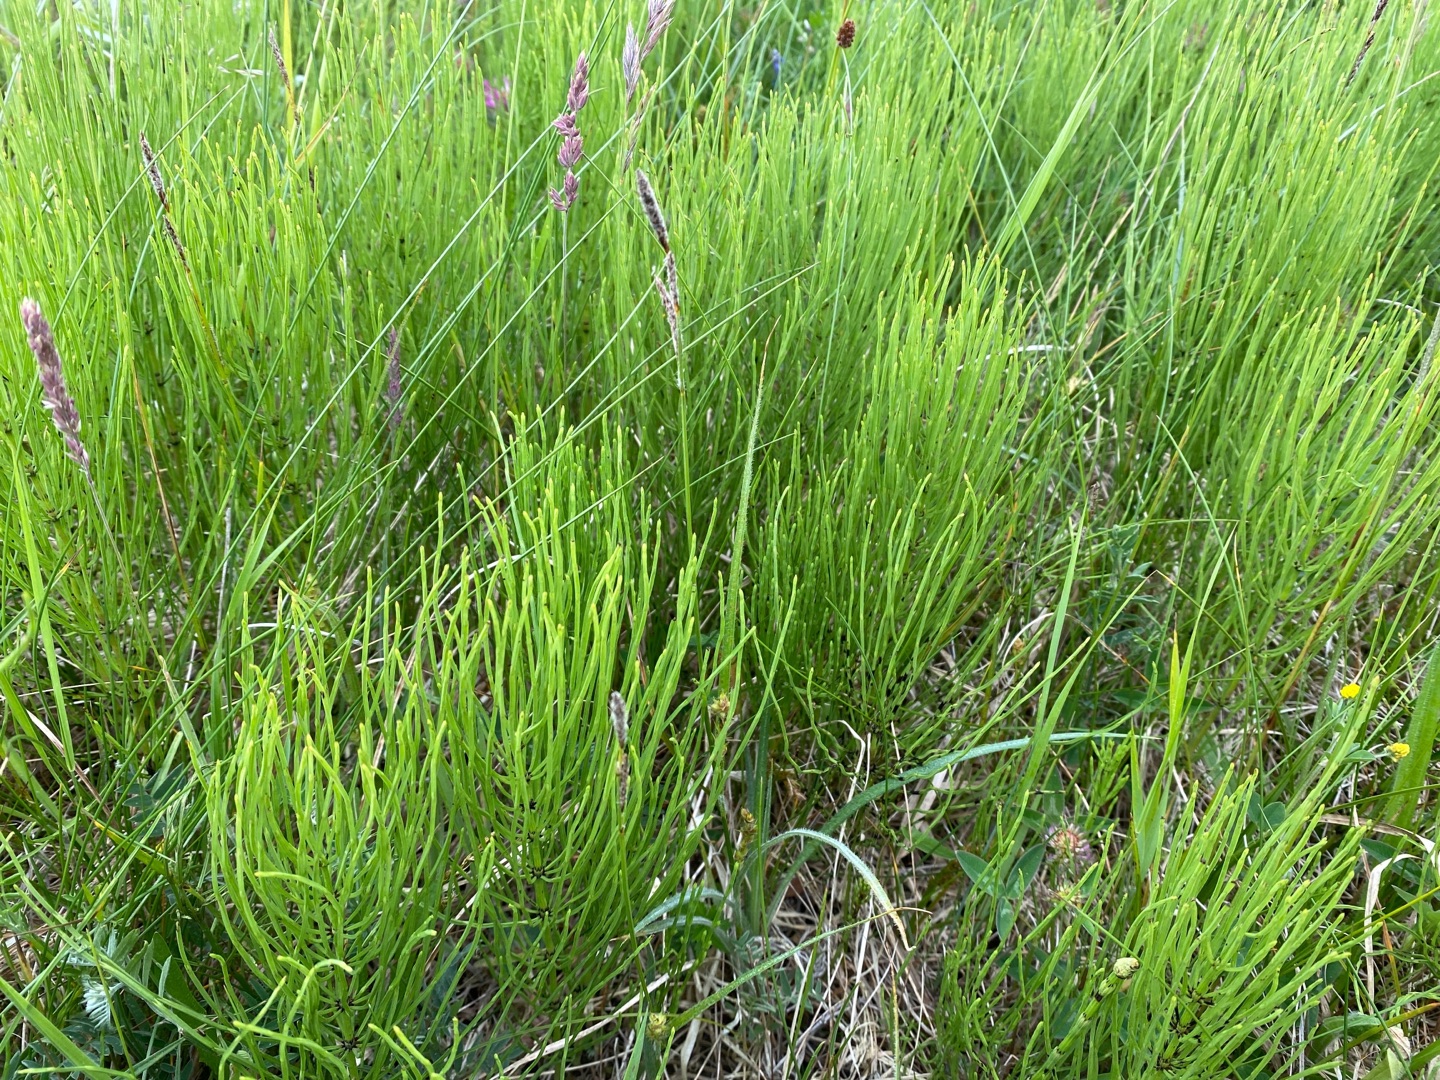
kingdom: Plantae
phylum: Tracheophyta
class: Polypodiopsida
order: Equisetales
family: Equisetaceae
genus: Equisetum
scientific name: Equisetum palustre
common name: Kær-padderok
